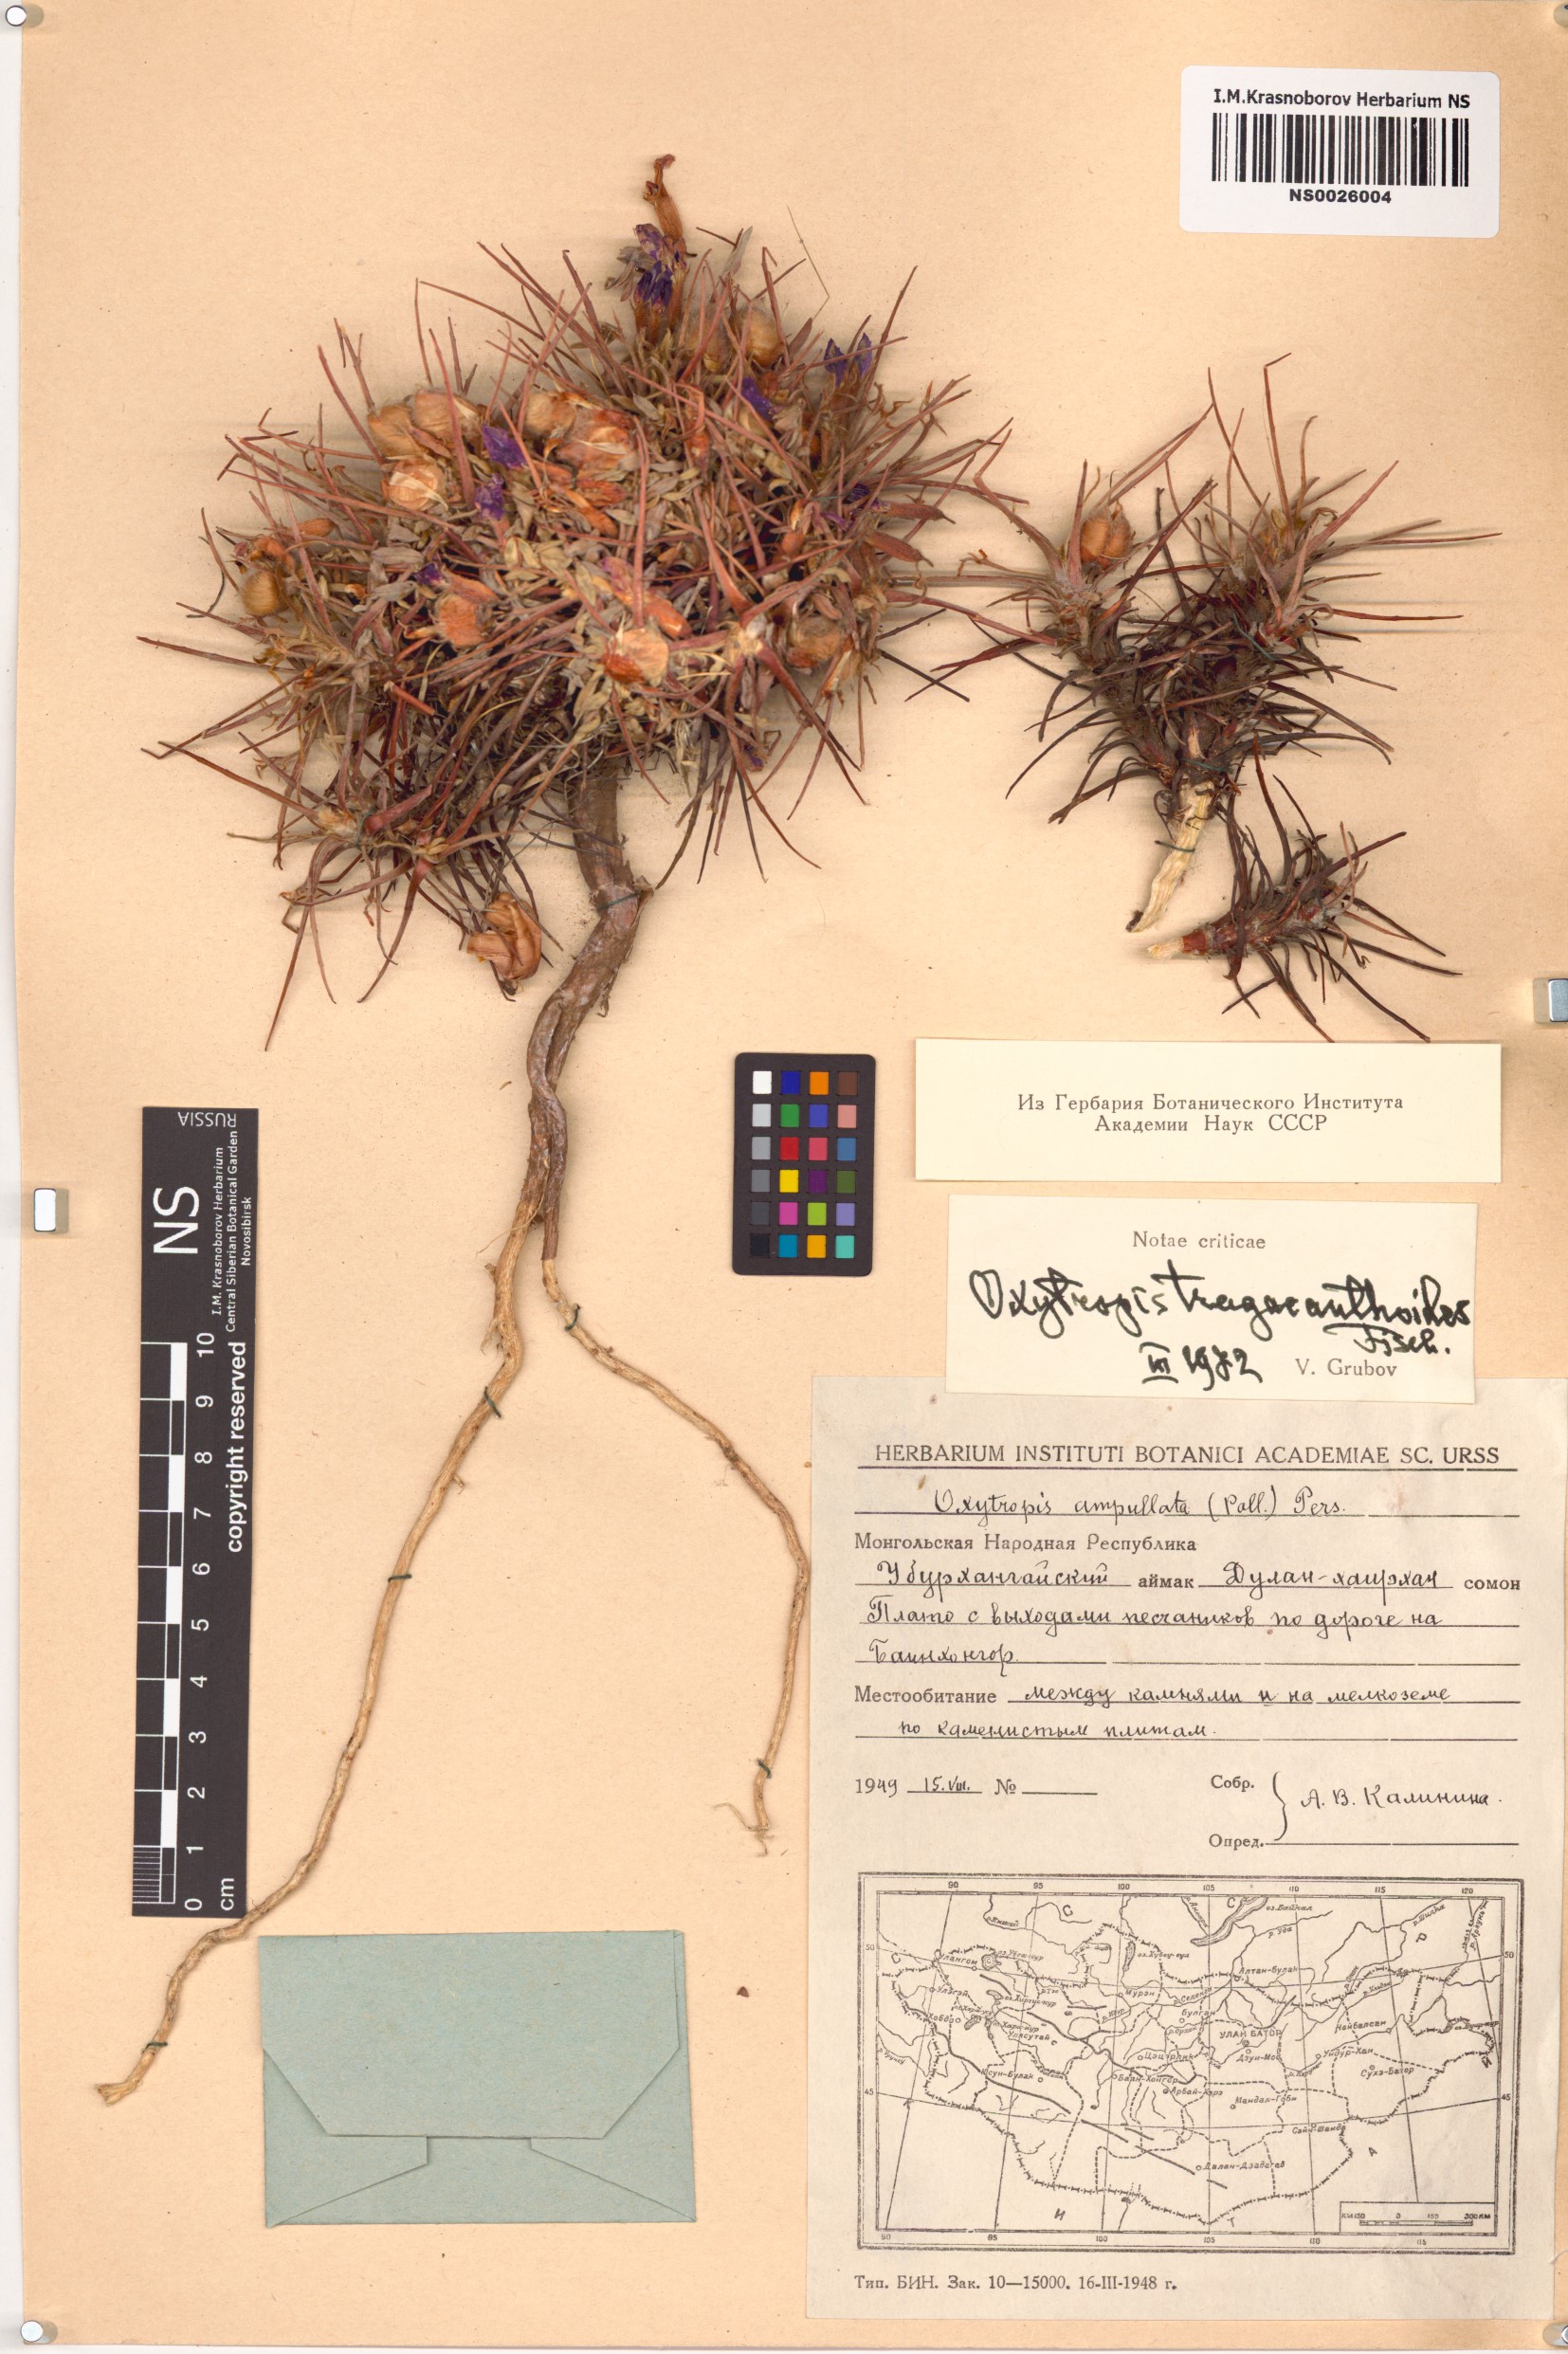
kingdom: Plantae
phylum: Tracheophyta
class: Magnoliopsida
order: Fabales
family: Fabaceae
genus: Oxytropis
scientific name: Oxytropis tragacanthoides
